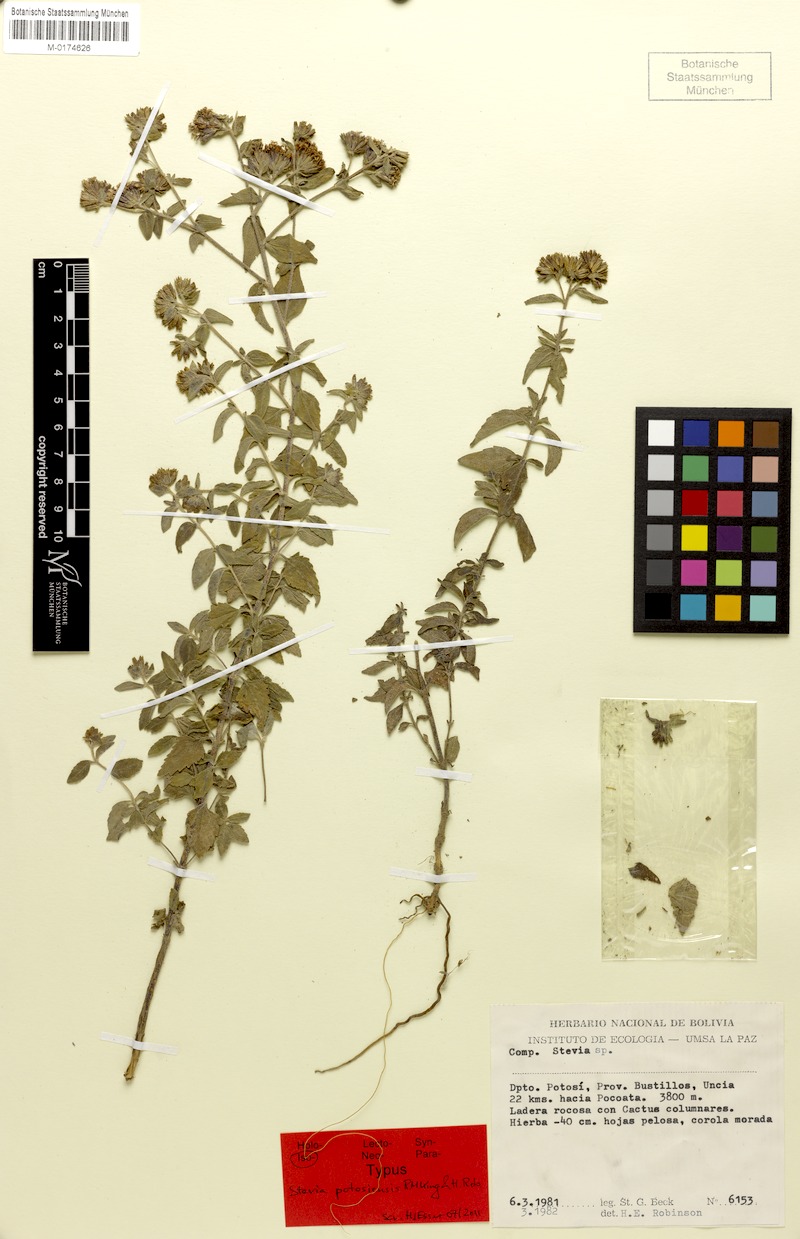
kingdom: Plantae
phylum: Tracheophyta
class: Magnoliopsida
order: Asterales
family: Asteraceae
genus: Stevia
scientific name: Stevia potosiensis
